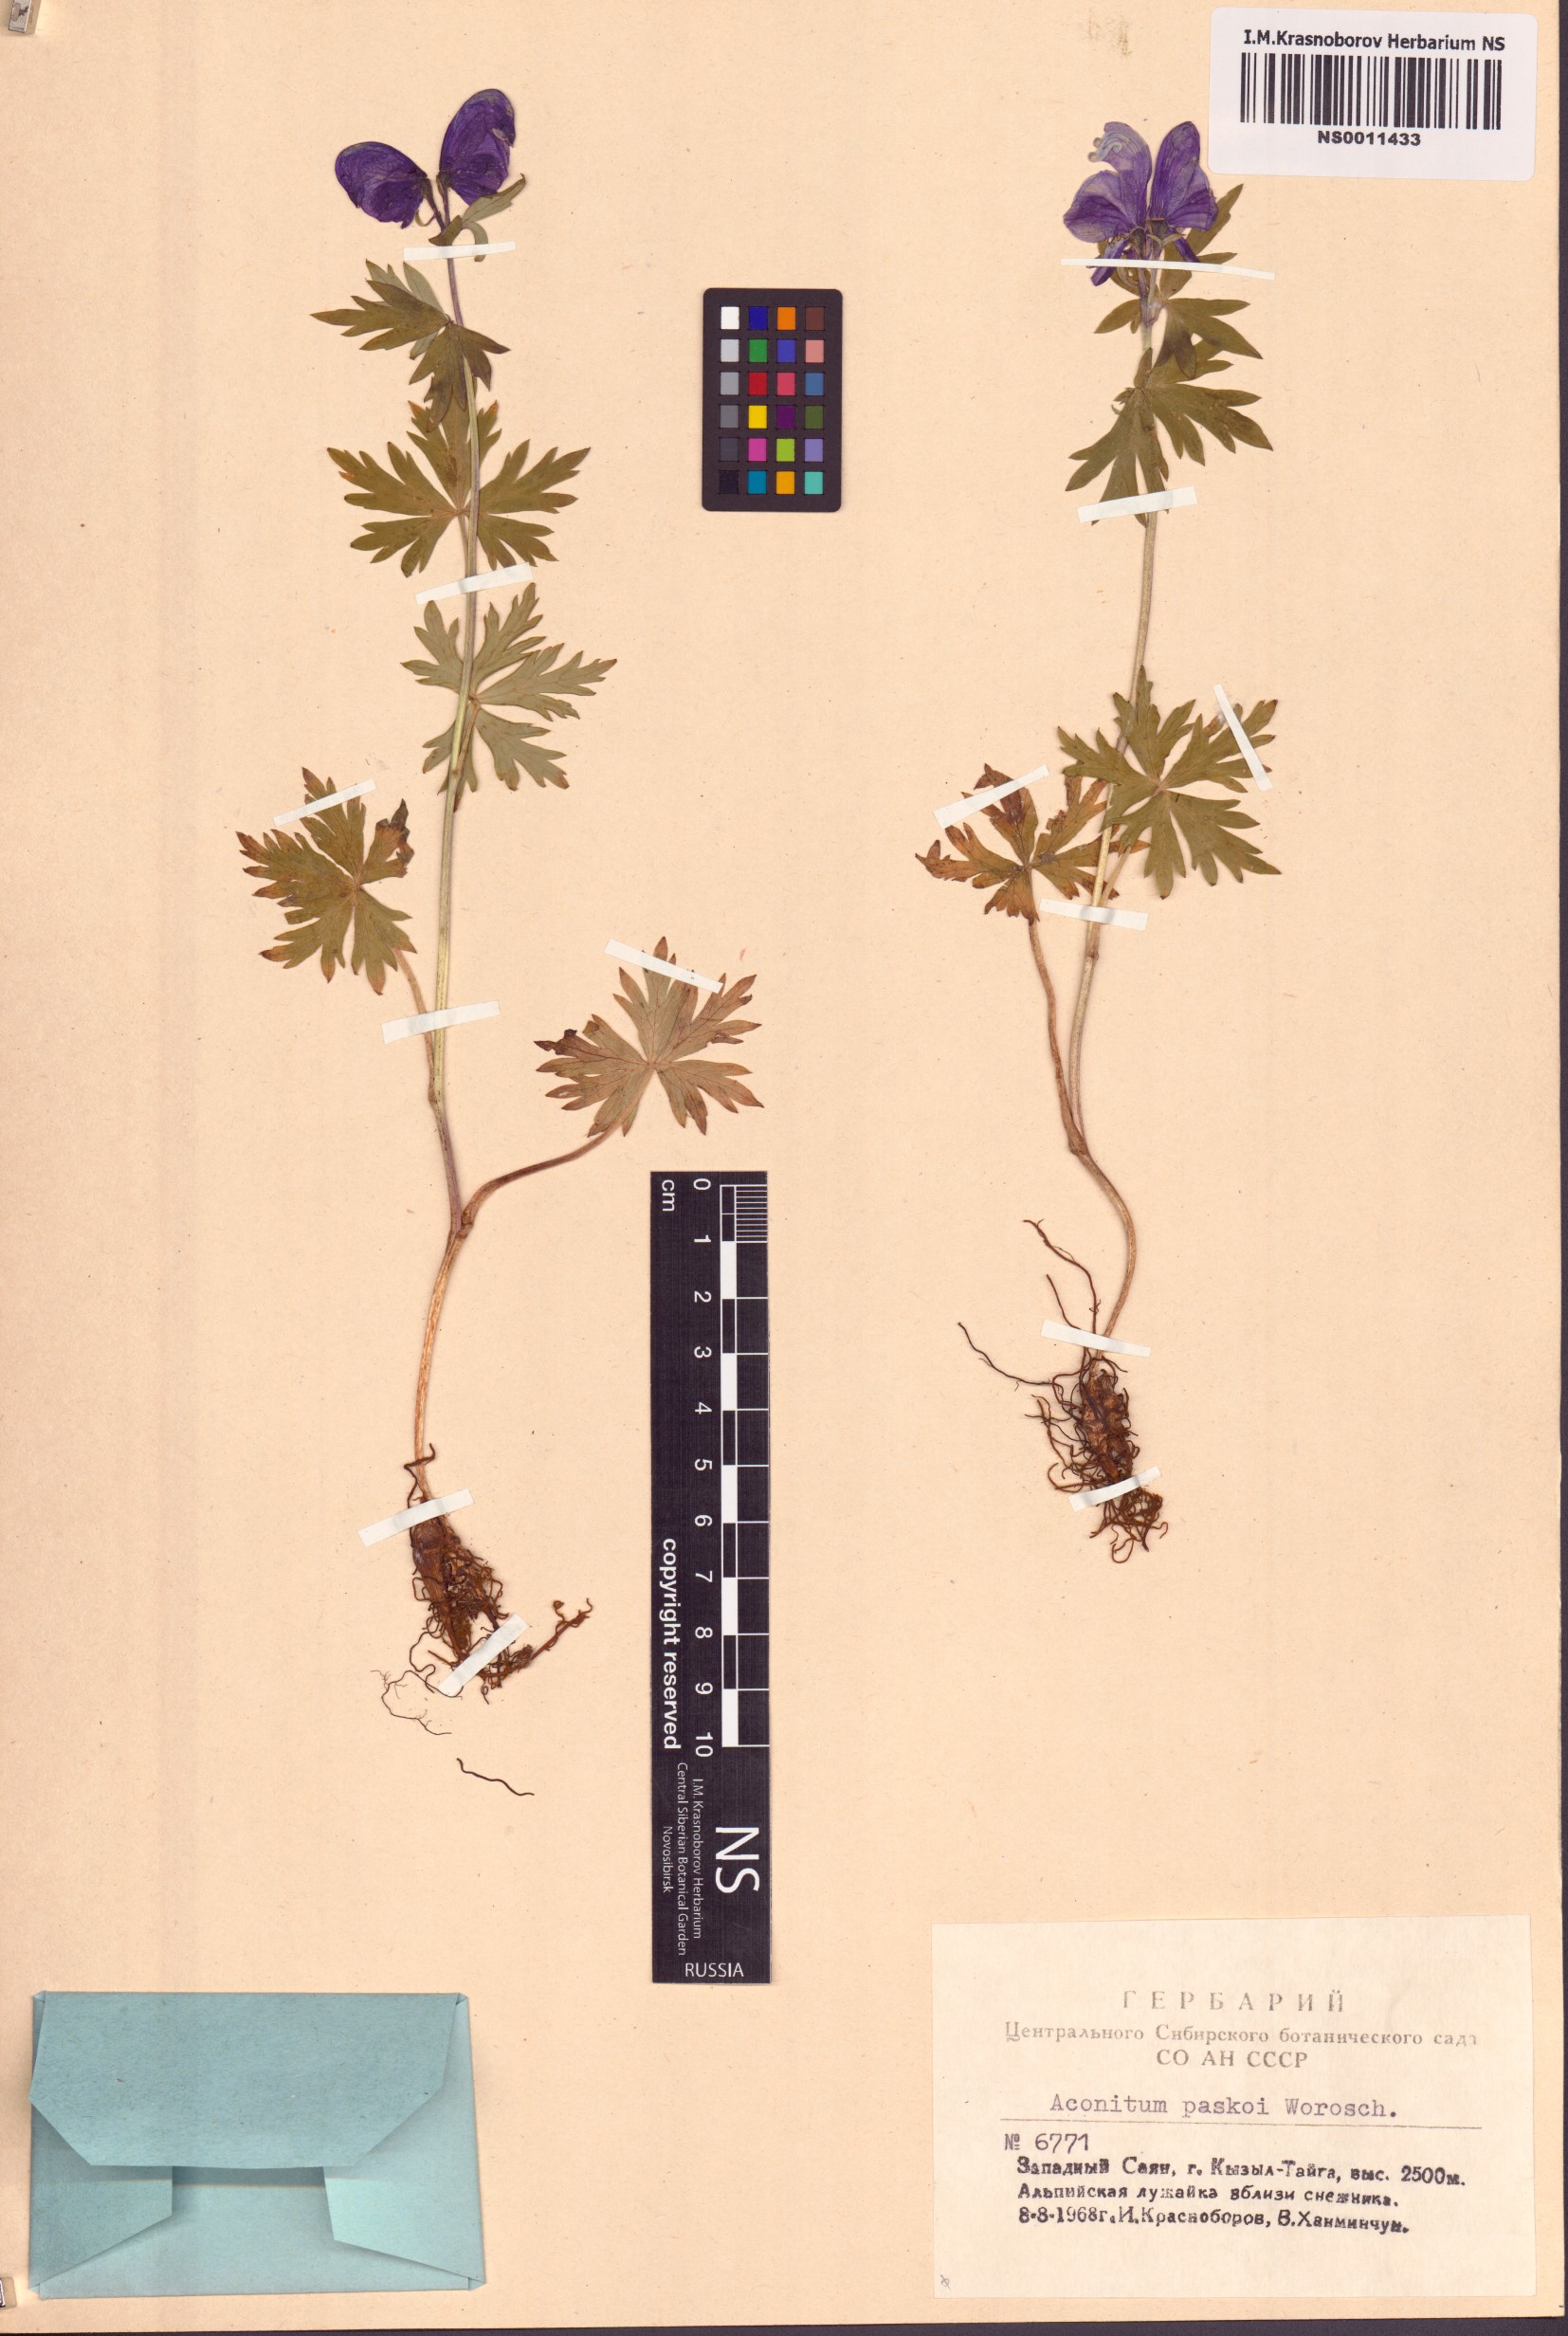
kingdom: Plantae
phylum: Tracheophyta
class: Magnoliopsida
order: Ranunculales
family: Ranunculaceae
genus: Aconitum
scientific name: Aconitum pascoi
